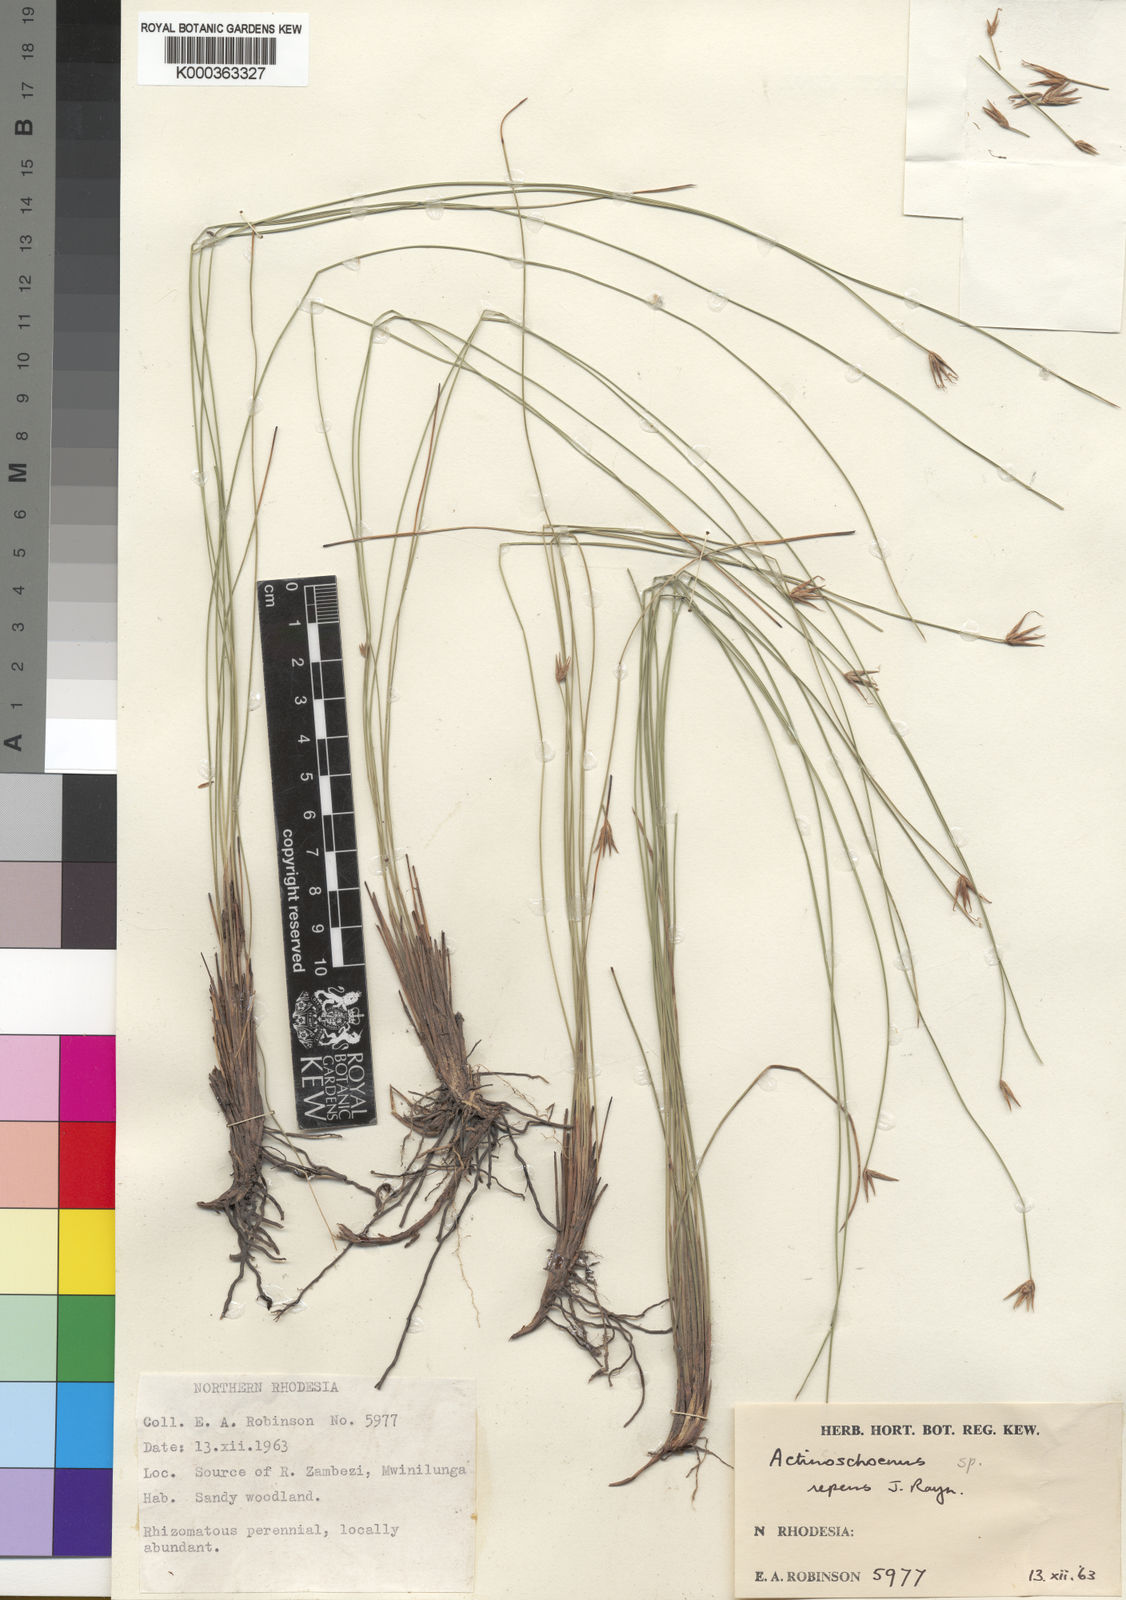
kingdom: Plantae
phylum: Tracheophyta
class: Liliopsida
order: Poales
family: Cyperaceae
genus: Actinoschoenus
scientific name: Actinoschoenus repens
